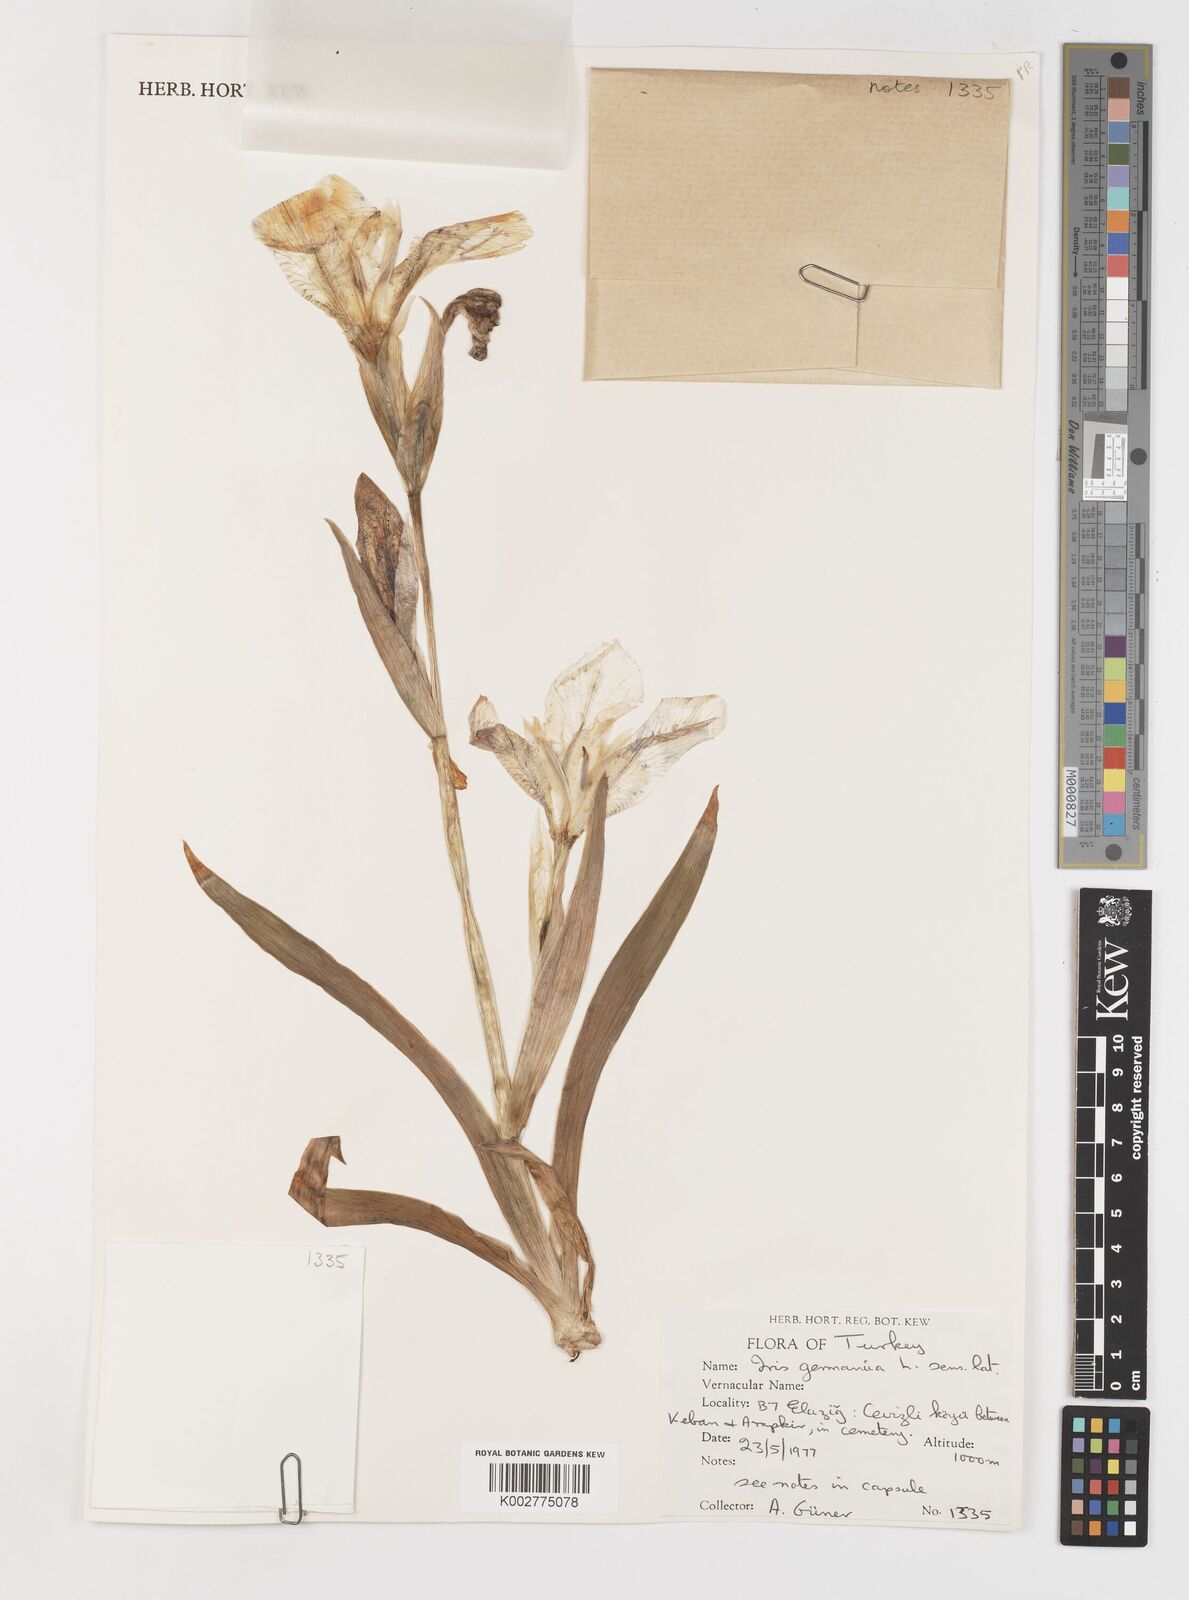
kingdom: Plantae
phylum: Tracheophyta
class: Liliopsida
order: Asparagales
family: Iridaceae
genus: Iris
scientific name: Iris germanica
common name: German iris
